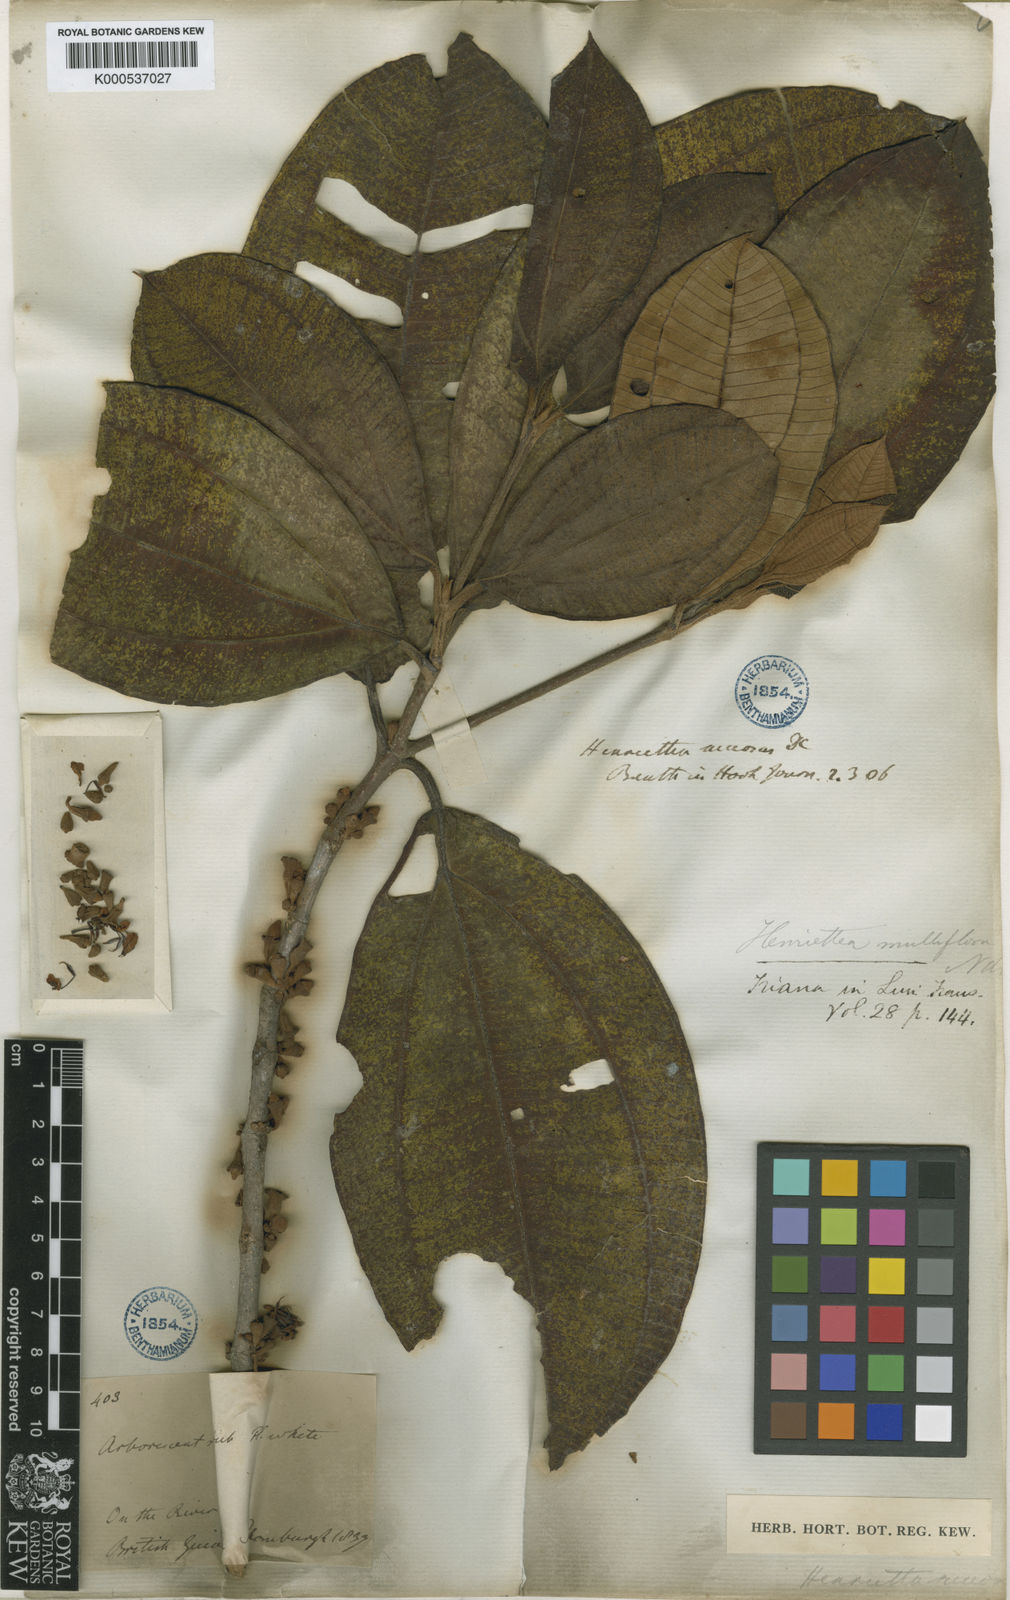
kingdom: Plantae
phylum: Tracheophyta
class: Magnoliopsida
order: Myrtales
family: Melastomataceae
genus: Henriettea
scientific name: Henriettea multiflora
